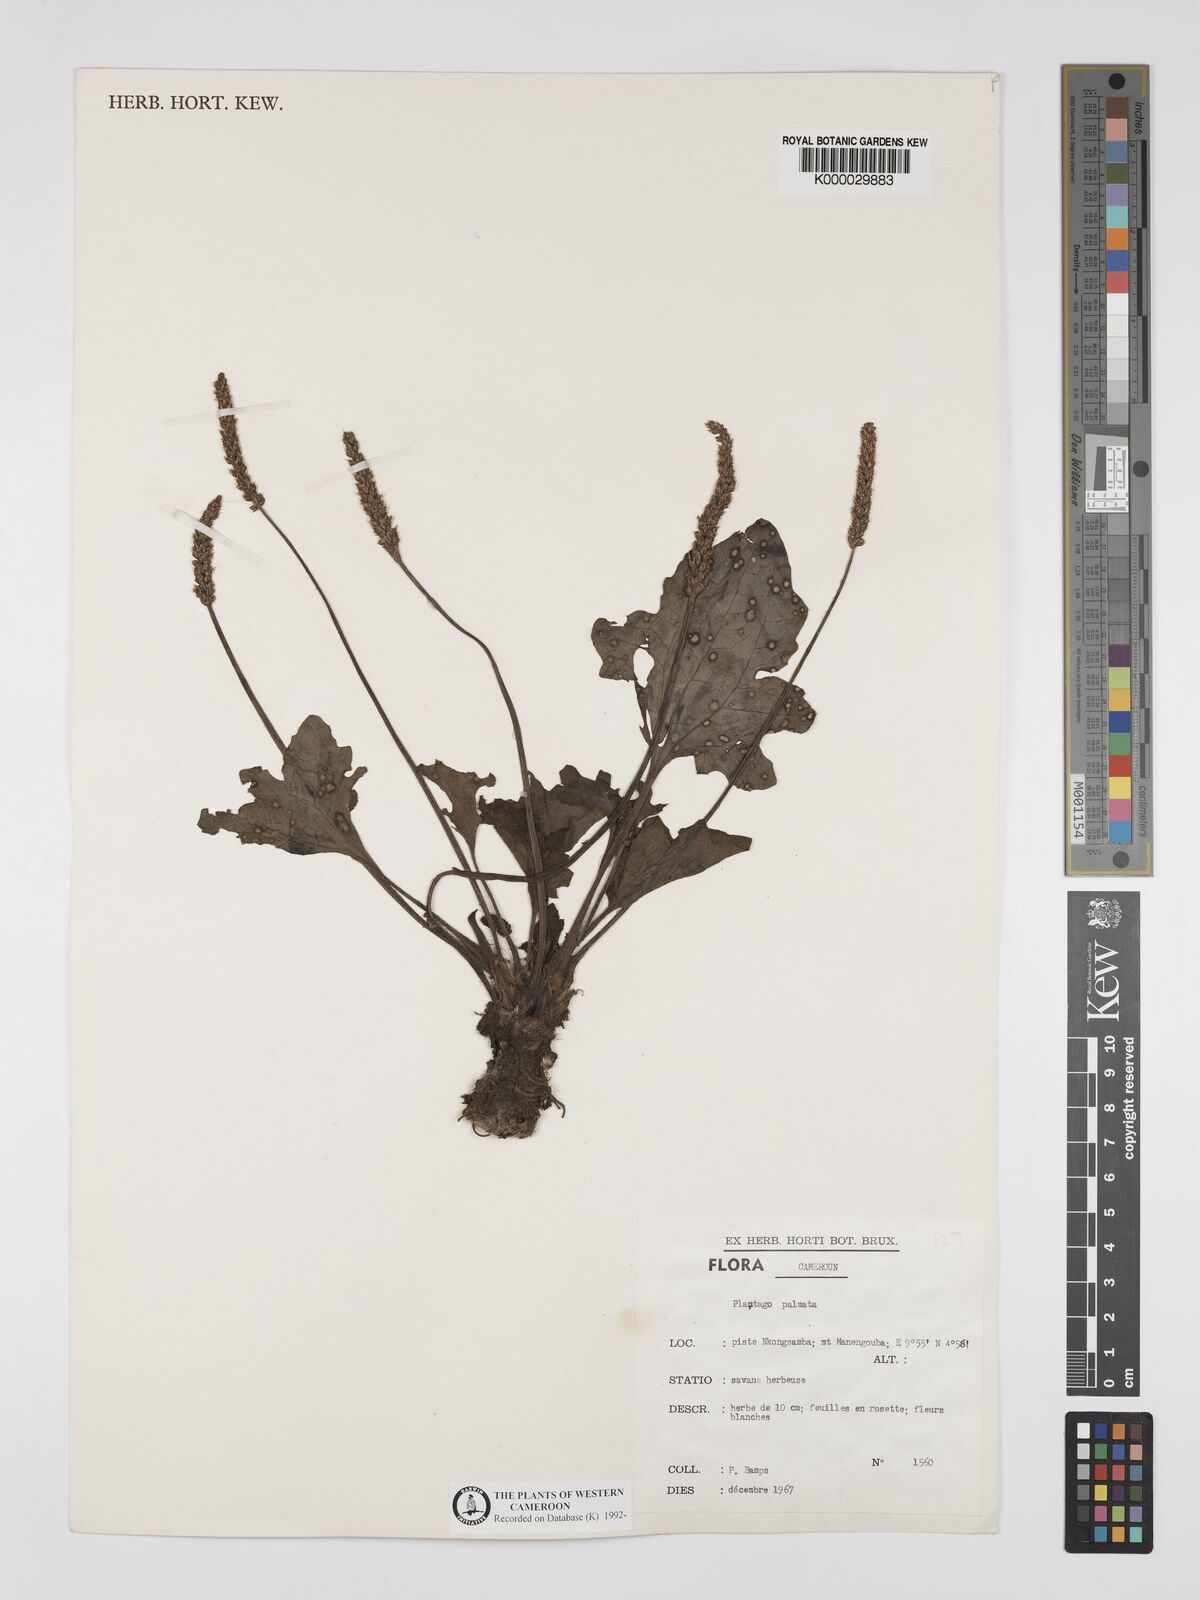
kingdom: Plantae
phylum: Tracheophyta
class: Magnoliopsida
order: Lamiales
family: Plantaginaceae
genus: Plantago
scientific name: Plantago palmata
